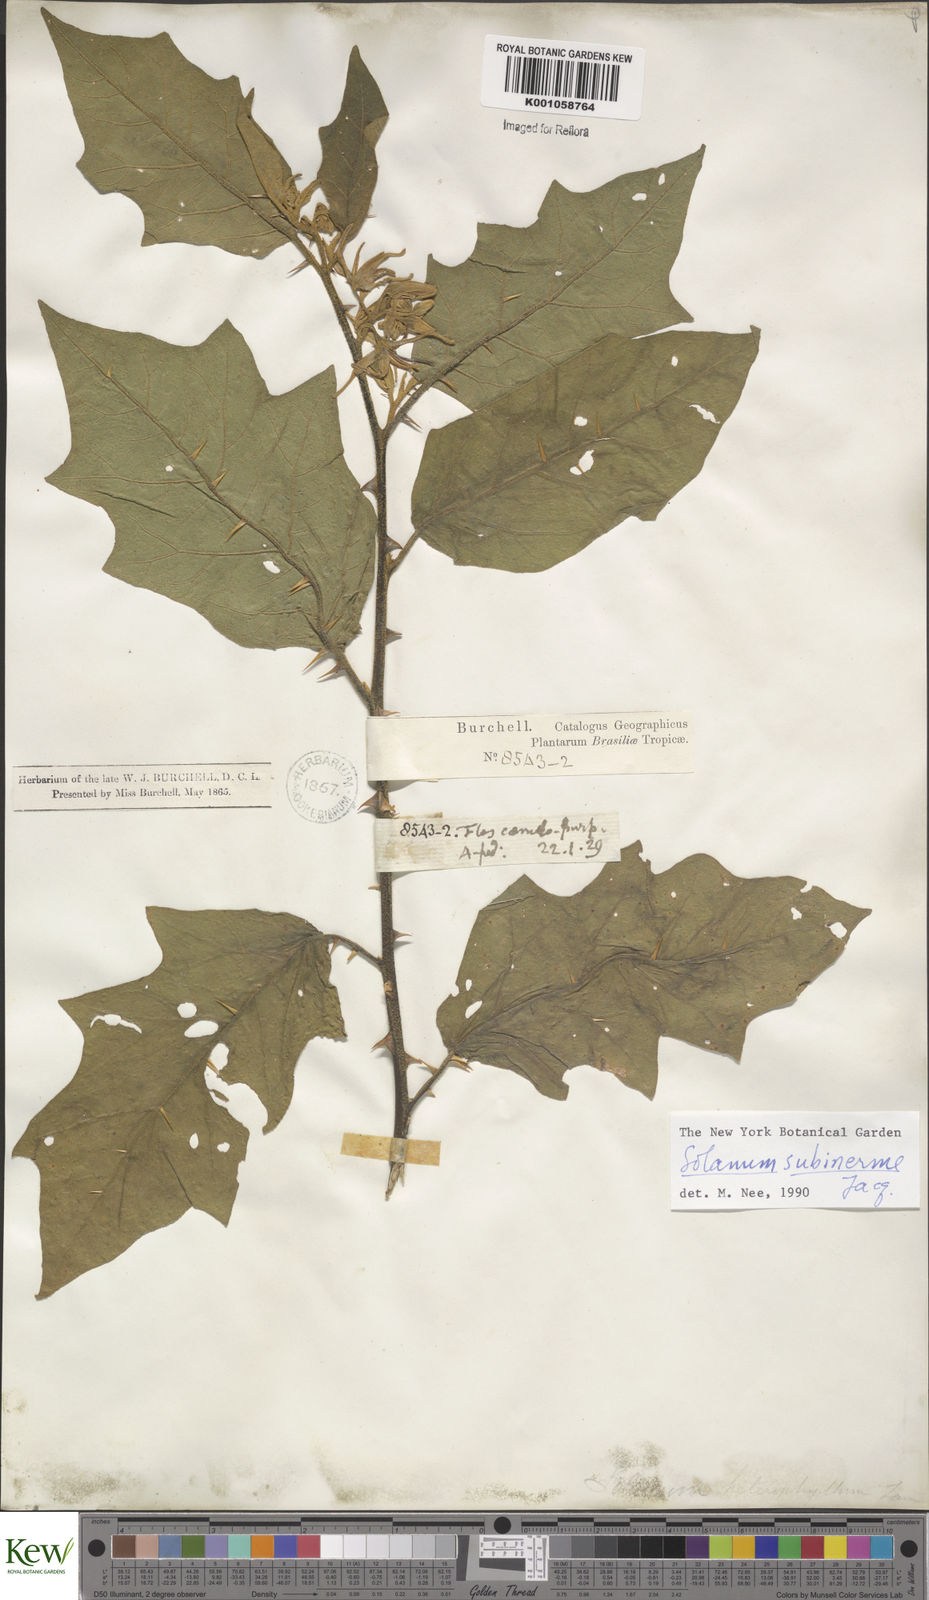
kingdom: Plantae
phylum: Tracheophyta
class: Magnoliopsida
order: Solanales
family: Solanaceae
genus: Solanum
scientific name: Solanum subinerme
